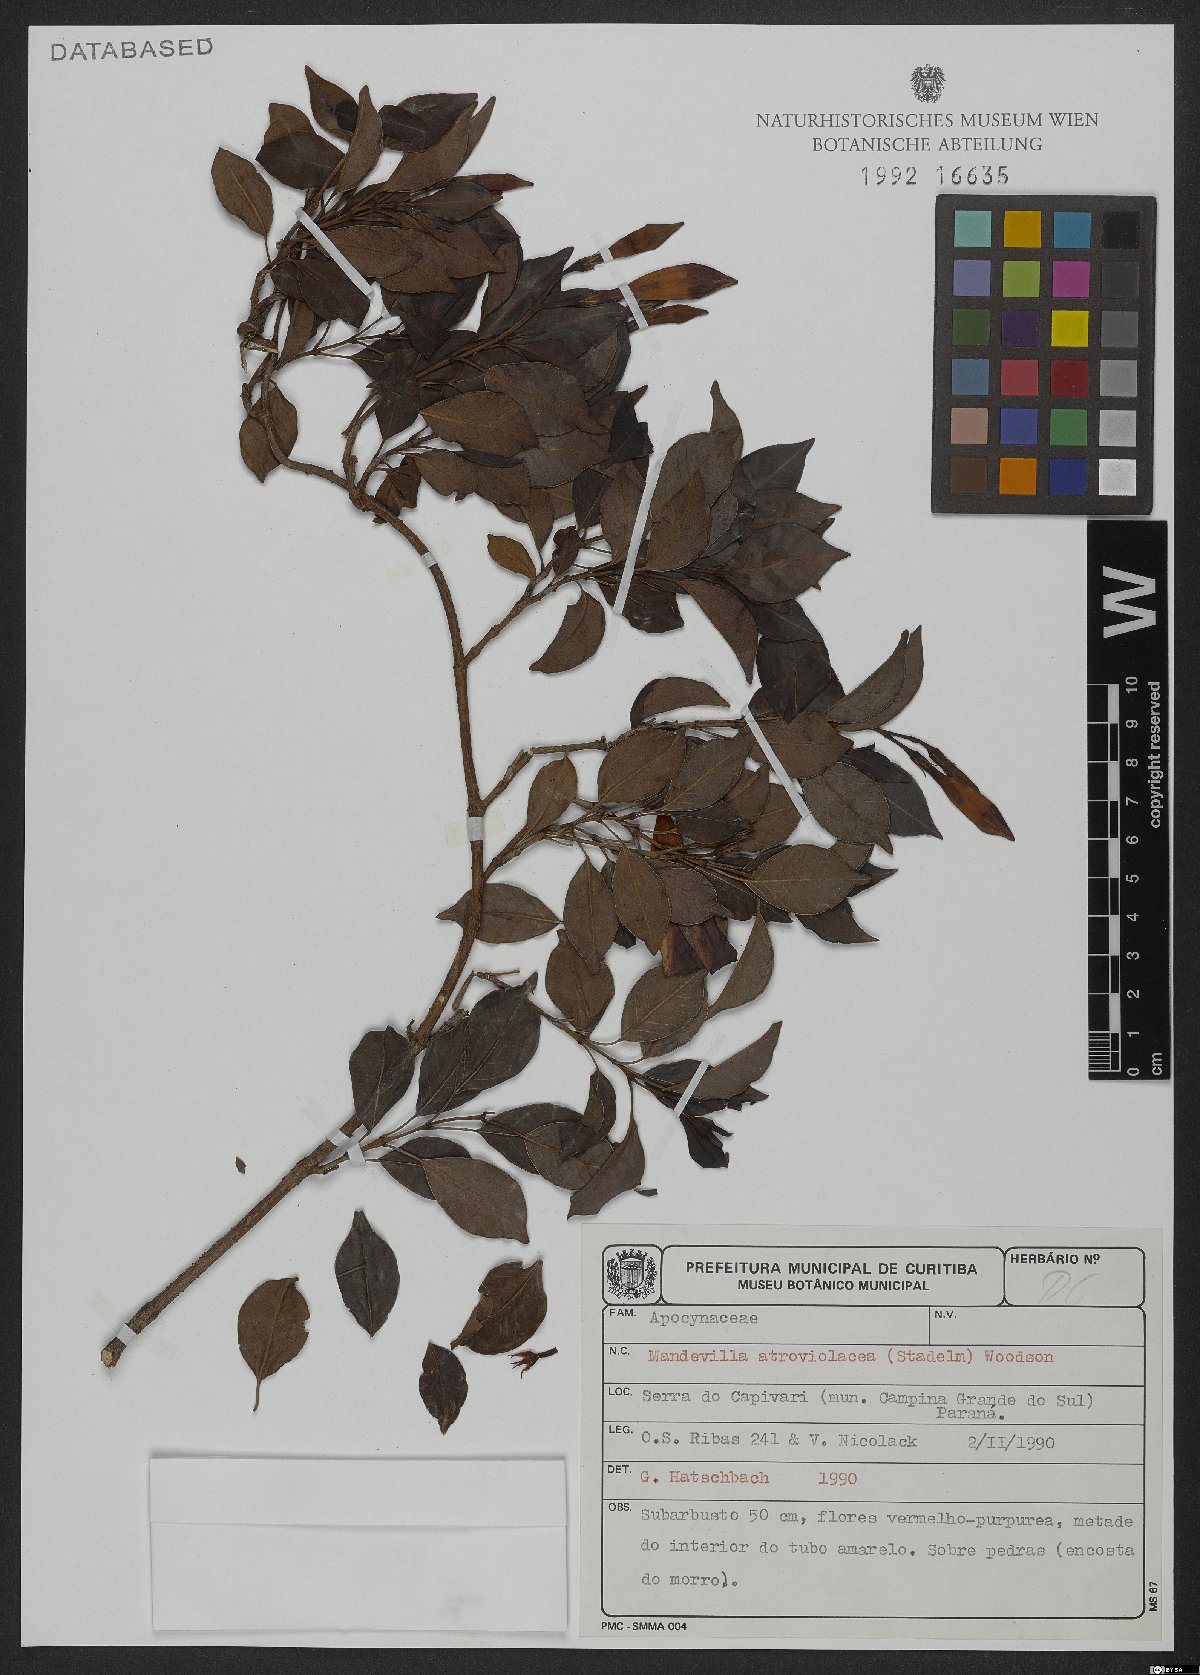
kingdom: Plantae
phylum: Tracheophyta
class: Magnoliopsida
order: Gentianales
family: Apocynaceae
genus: Mandevilla
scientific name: Mandevilla atroviolacea
